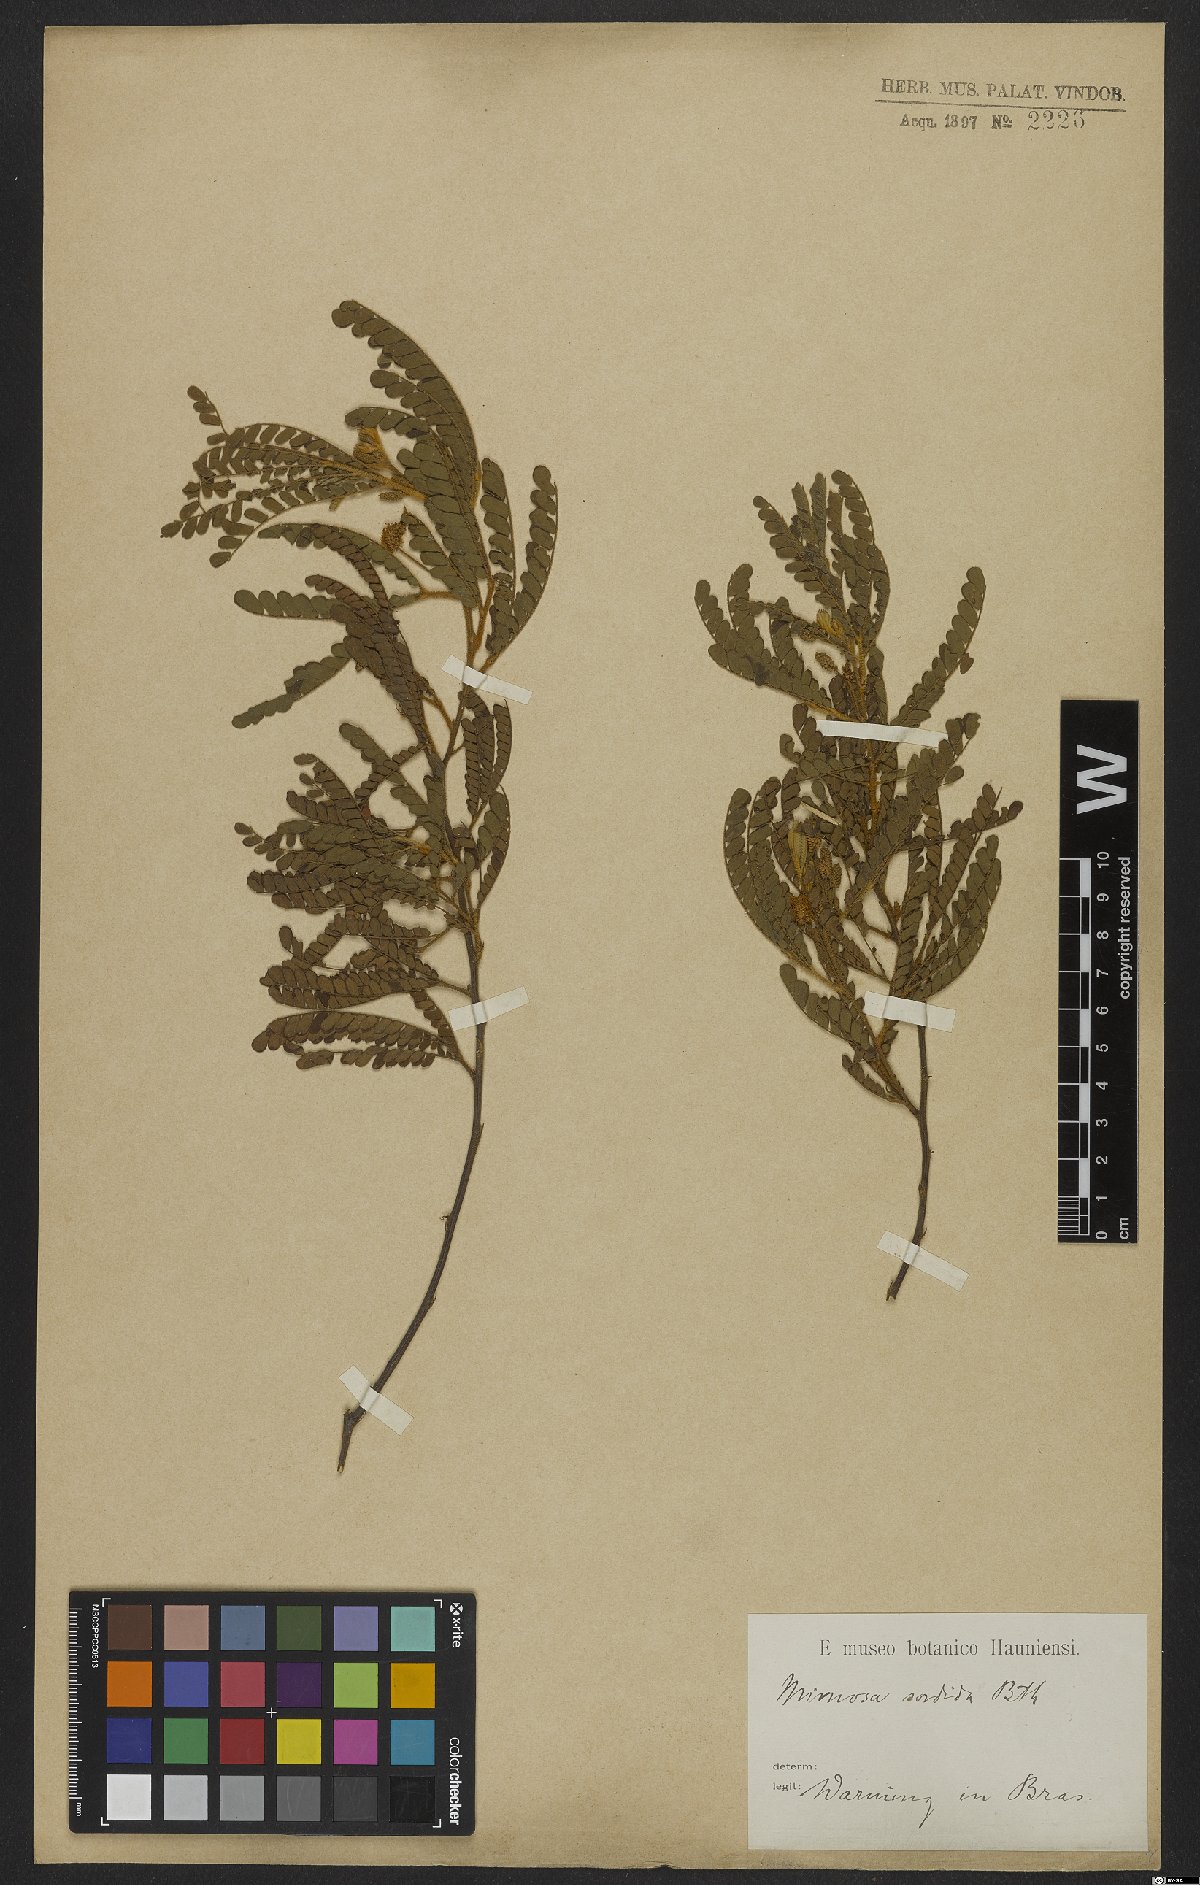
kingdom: Plantae
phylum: Tracheophyta
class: Magnoliopsida
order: Fabales
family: Fabaceae
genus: Mimosa
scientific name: Mimosa aurivillus
